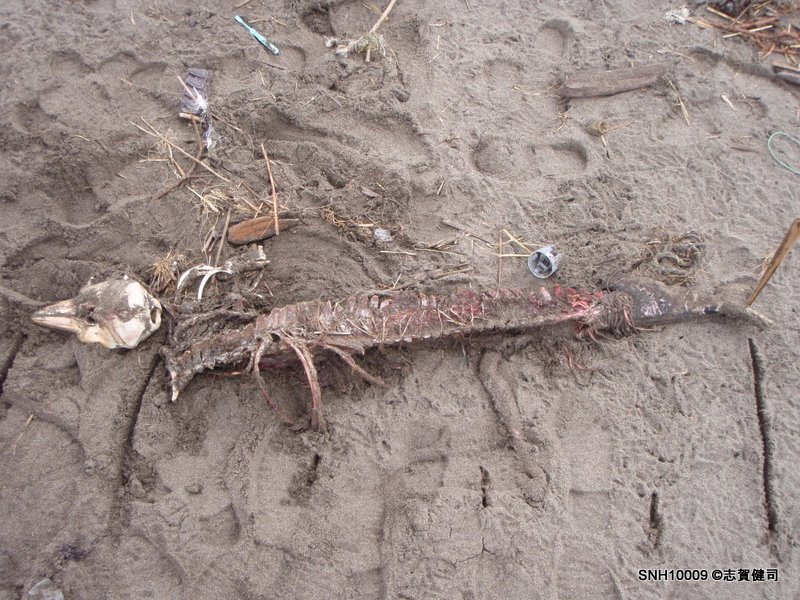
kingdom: Animalia
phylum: Chordata
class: Mammalia
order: Cetacea
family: Phocoenidae
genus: Phocoena
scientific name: Phocoena phocoena
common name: Harbour porpoise
